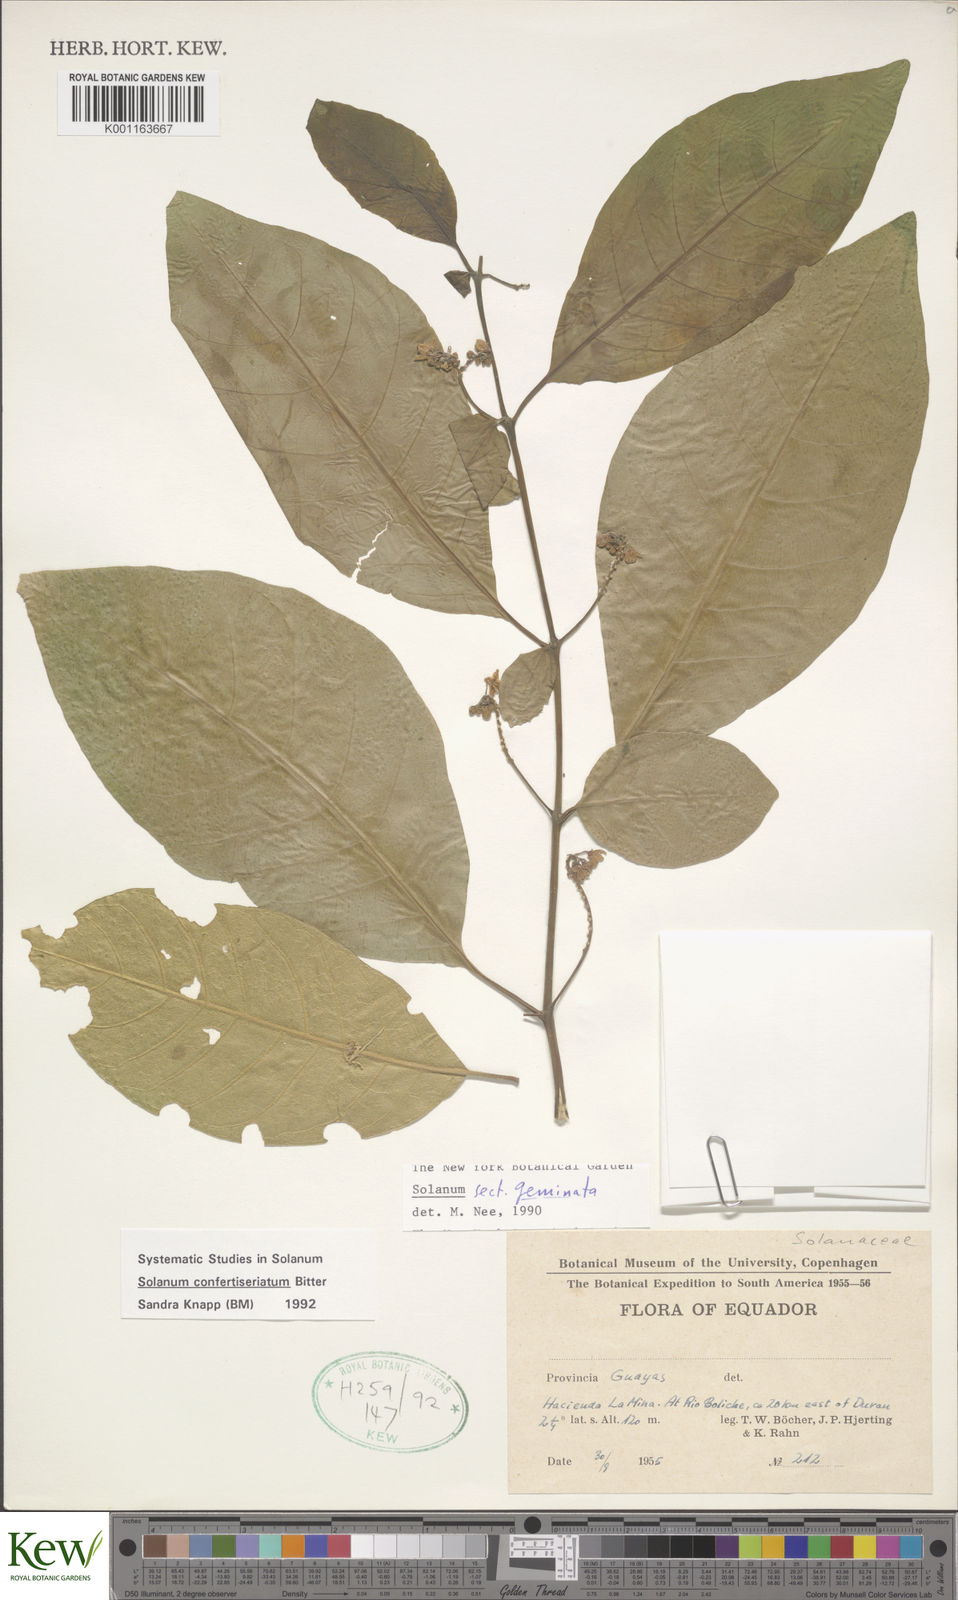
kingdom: Plantae
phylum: Tracheophyta
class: Magnoliopsida
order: Solanales
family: Solanaceae
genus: Solanum
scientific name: Solanum confertiseriatum
